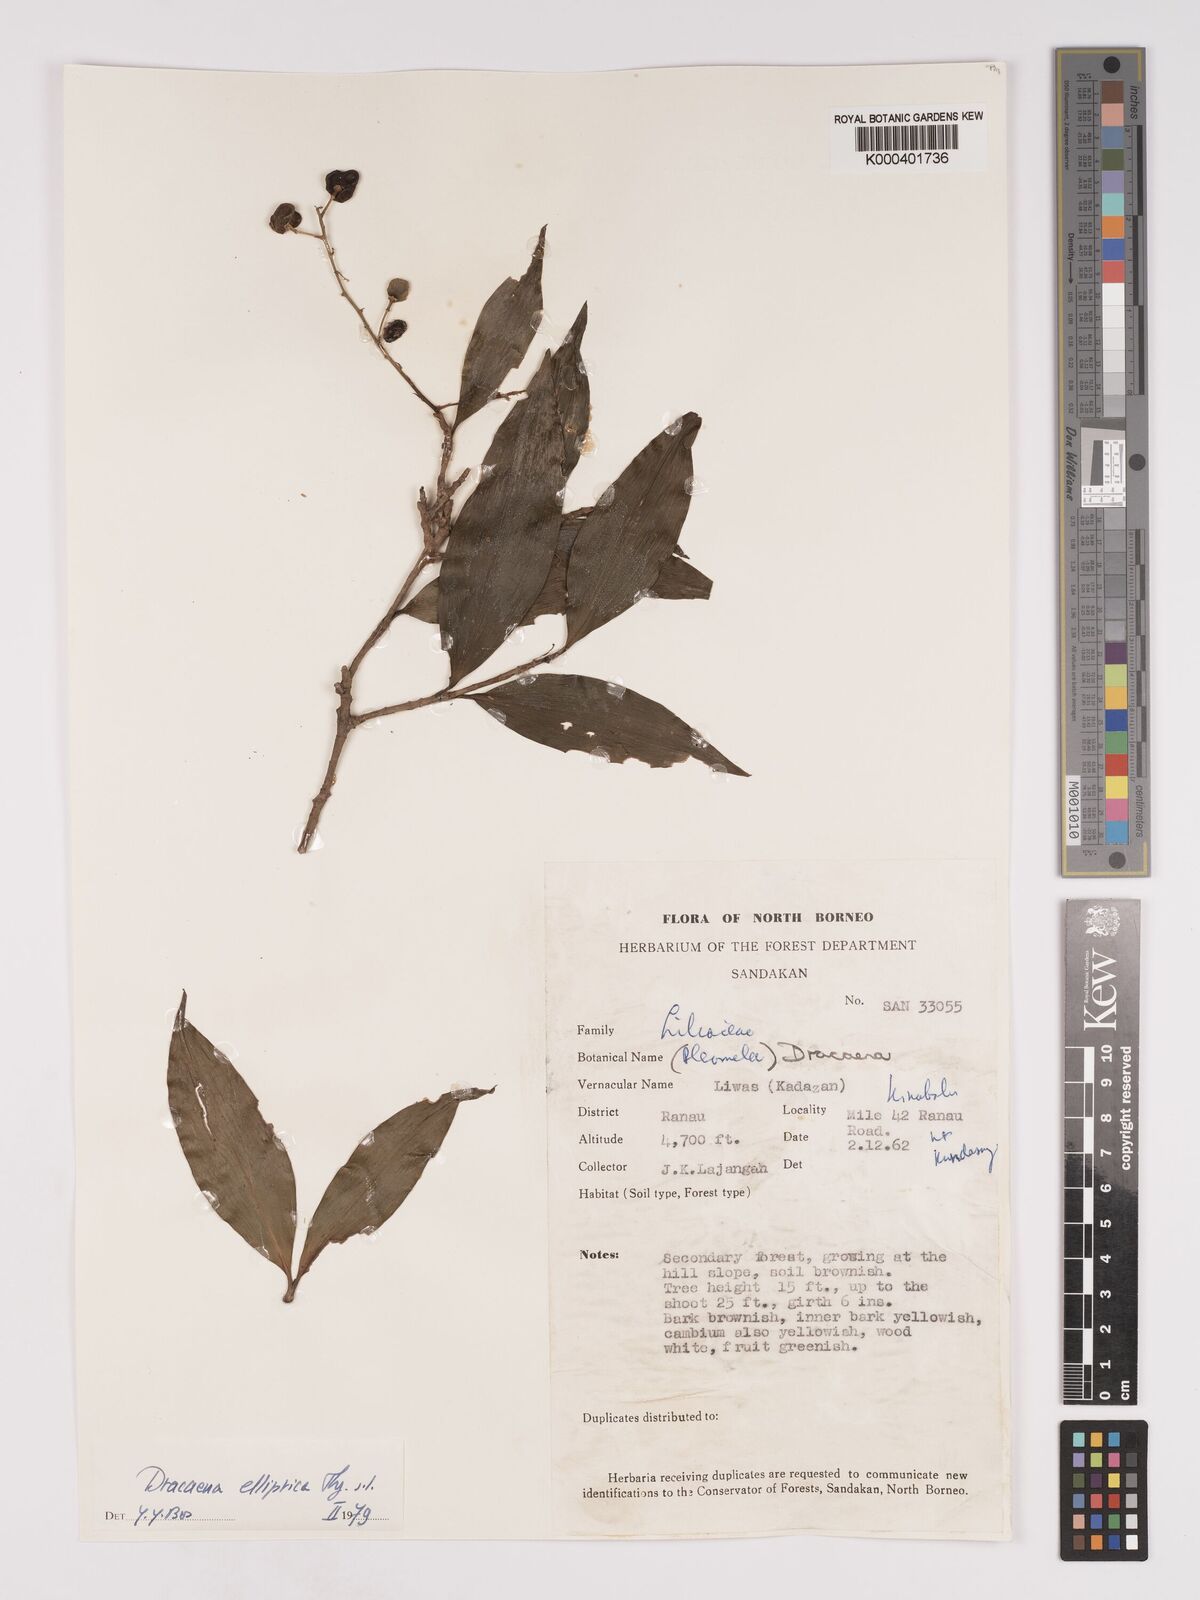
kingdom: Plantae
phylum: Tracheophyta
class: Liliopsida
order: Asparagales
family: Asparagaceae
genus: Dracaena
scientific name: Dracaena elliptica
